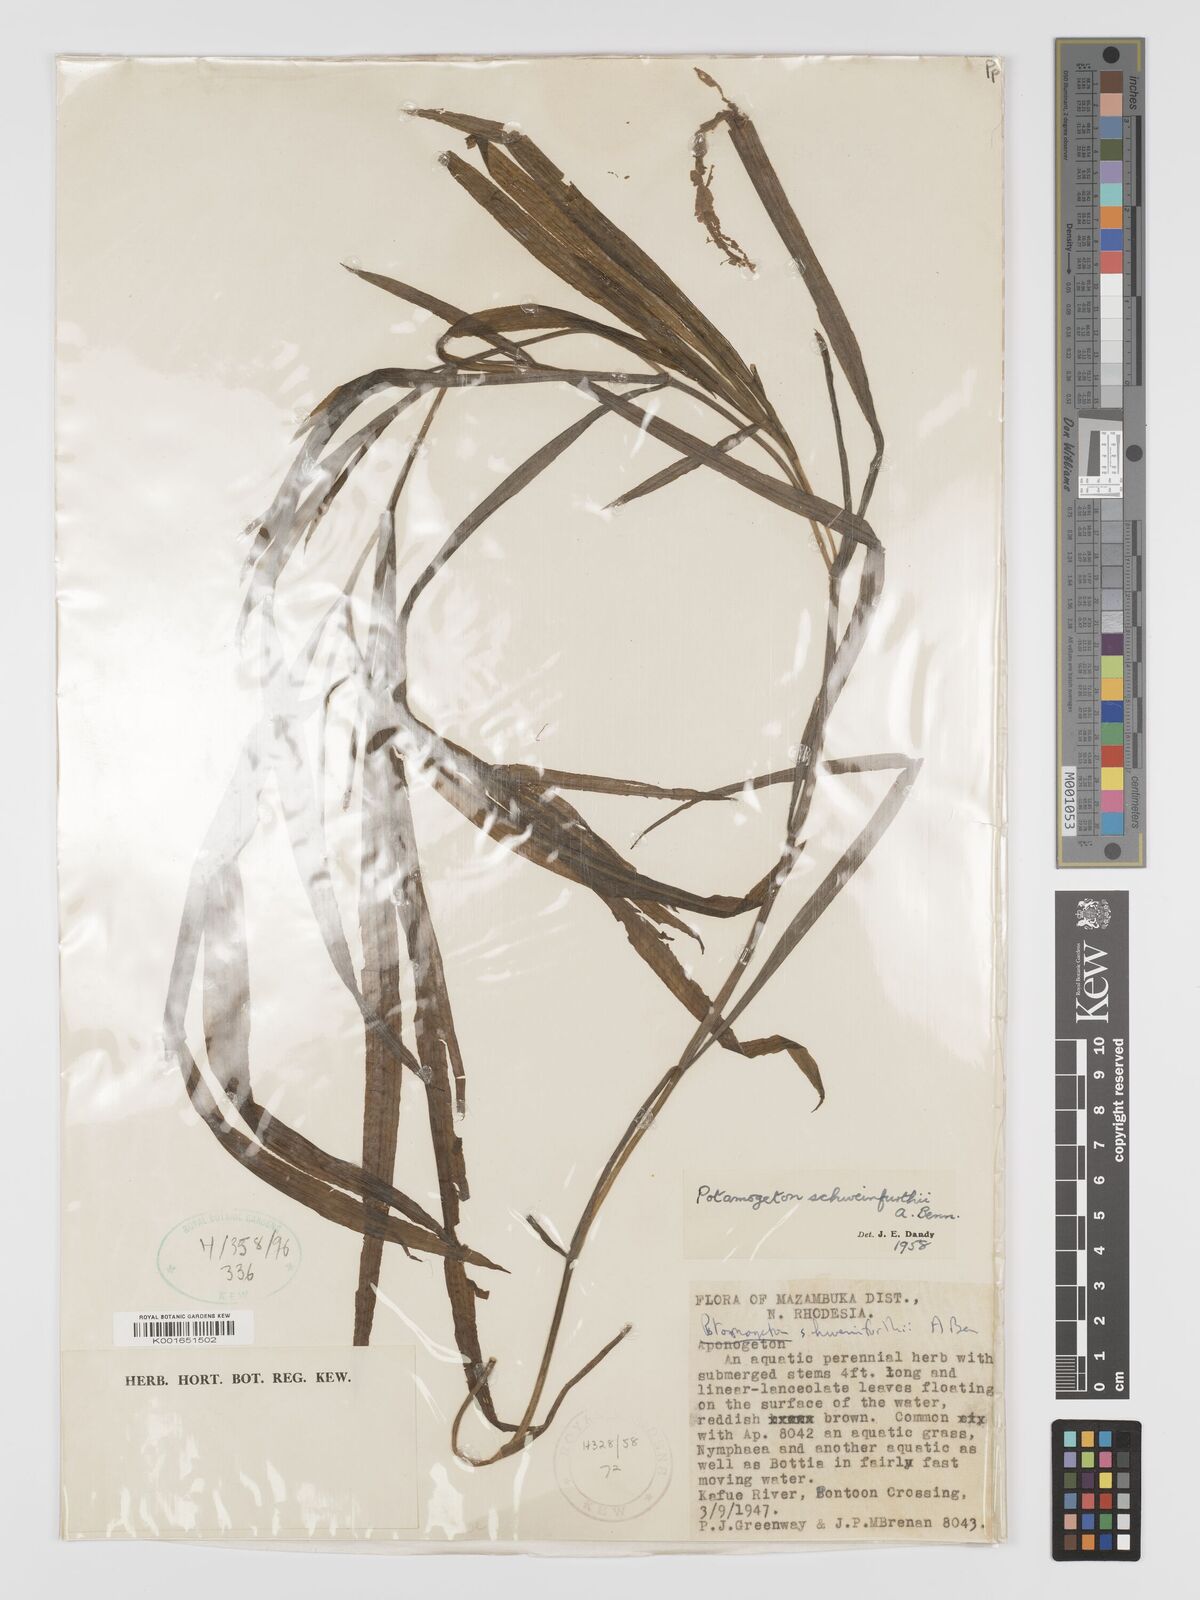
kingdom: Plantae
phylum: Tracheophyta
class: Liliopsida
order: Alismatales
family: Potamogetonaceae
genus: Potamogeton
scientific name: Potamogeton schweinfurthii
